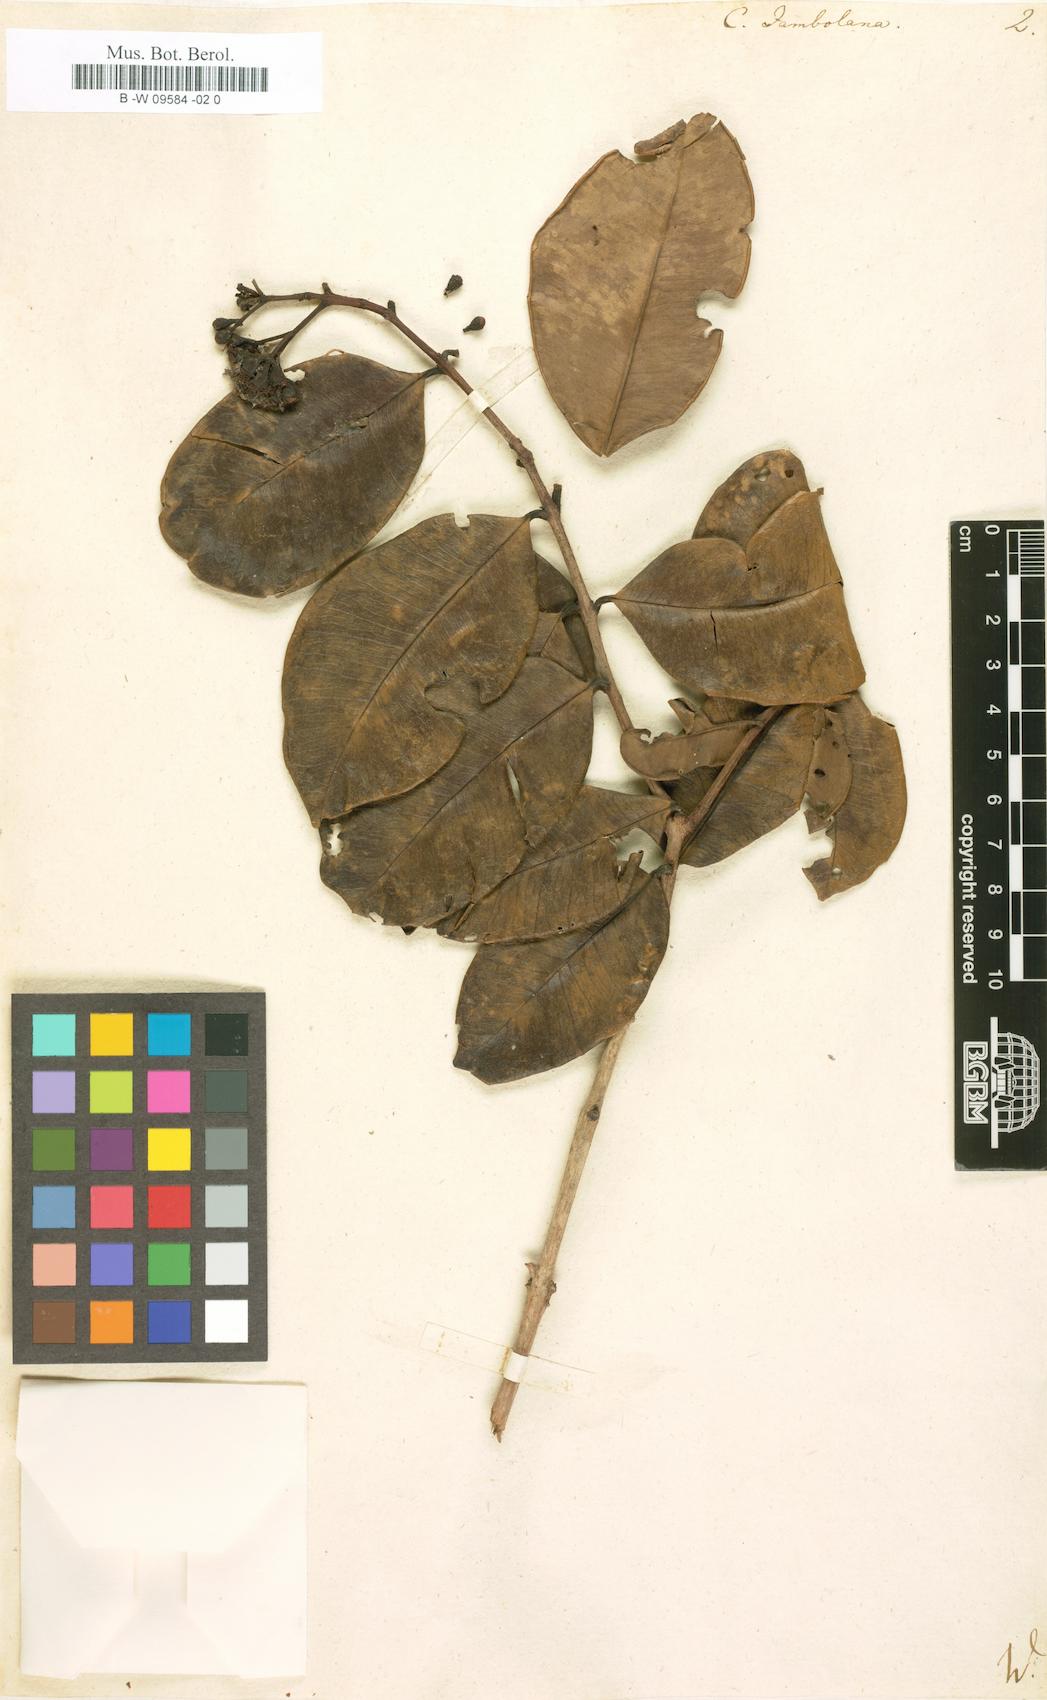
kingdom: Plantae
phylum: Tracheophyta
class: Magnoliopsida
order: Myrtales
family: Myrtaceae
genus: Calyptranthes
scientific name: Calyptranthes jambolana
